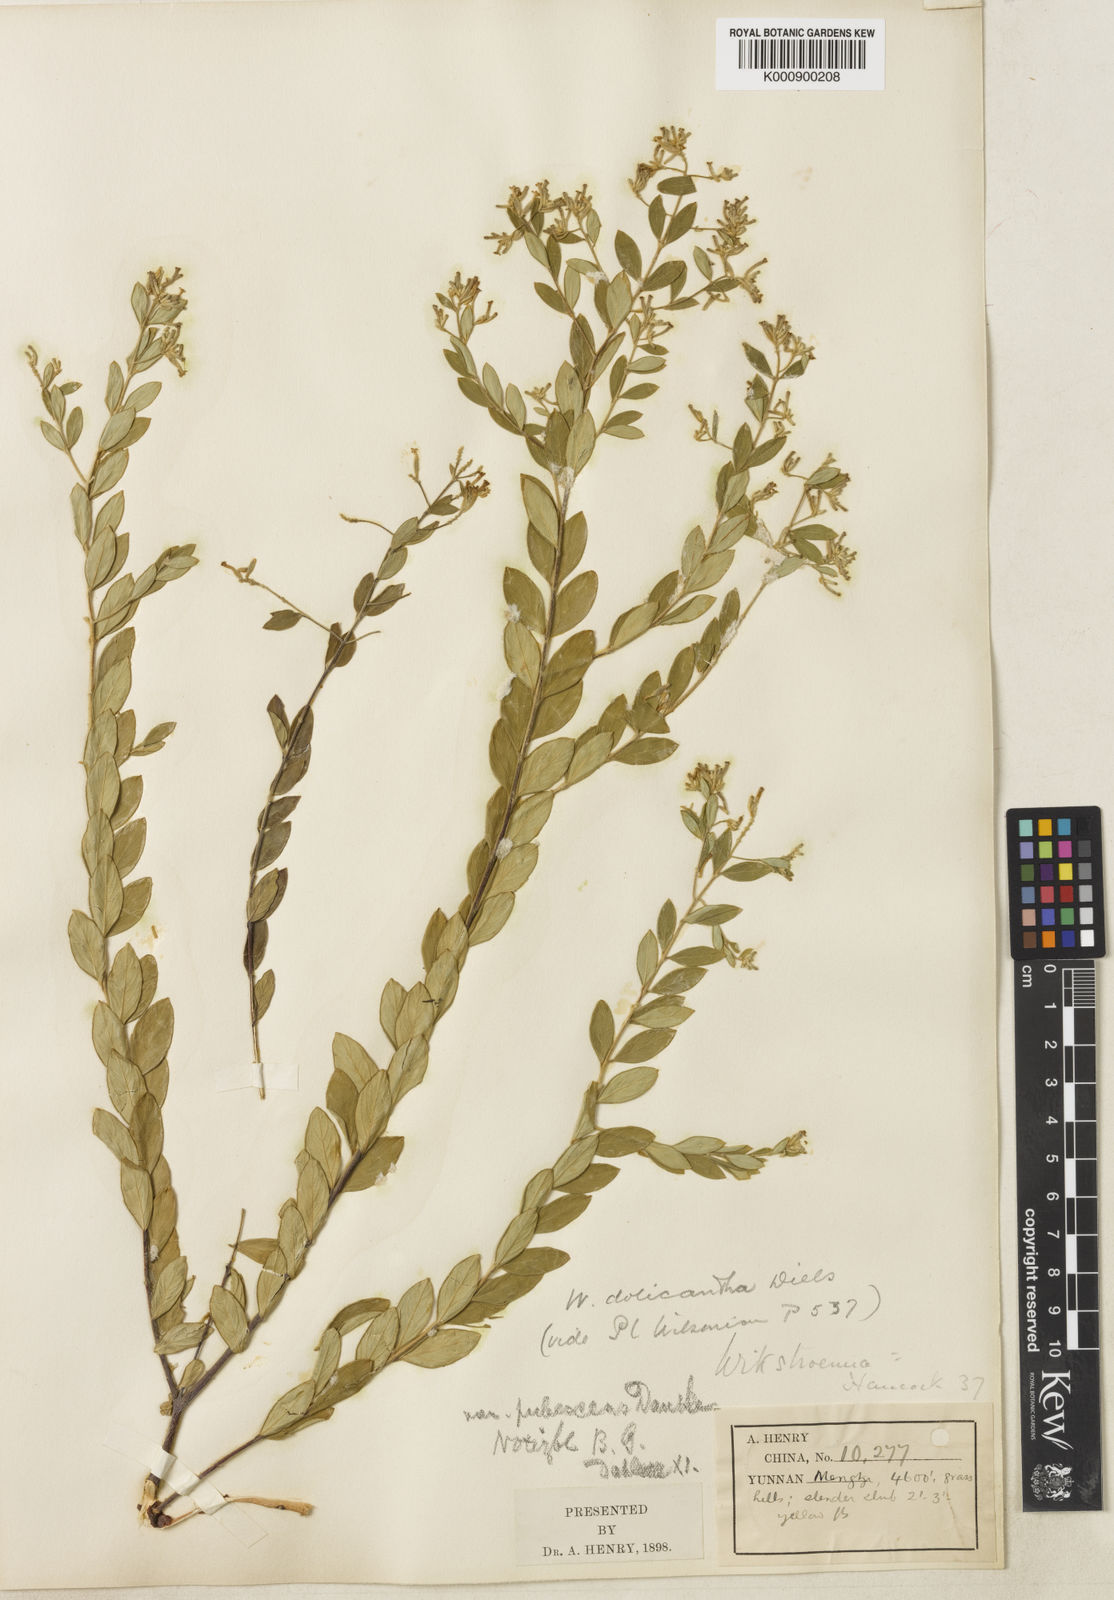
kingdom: Plantae
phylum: Tracheophyta
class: Magnoliopsida
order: Malvales
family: Thymelaeaceae
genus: Wikstroemia
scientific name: Wikstroemia dolichantha
